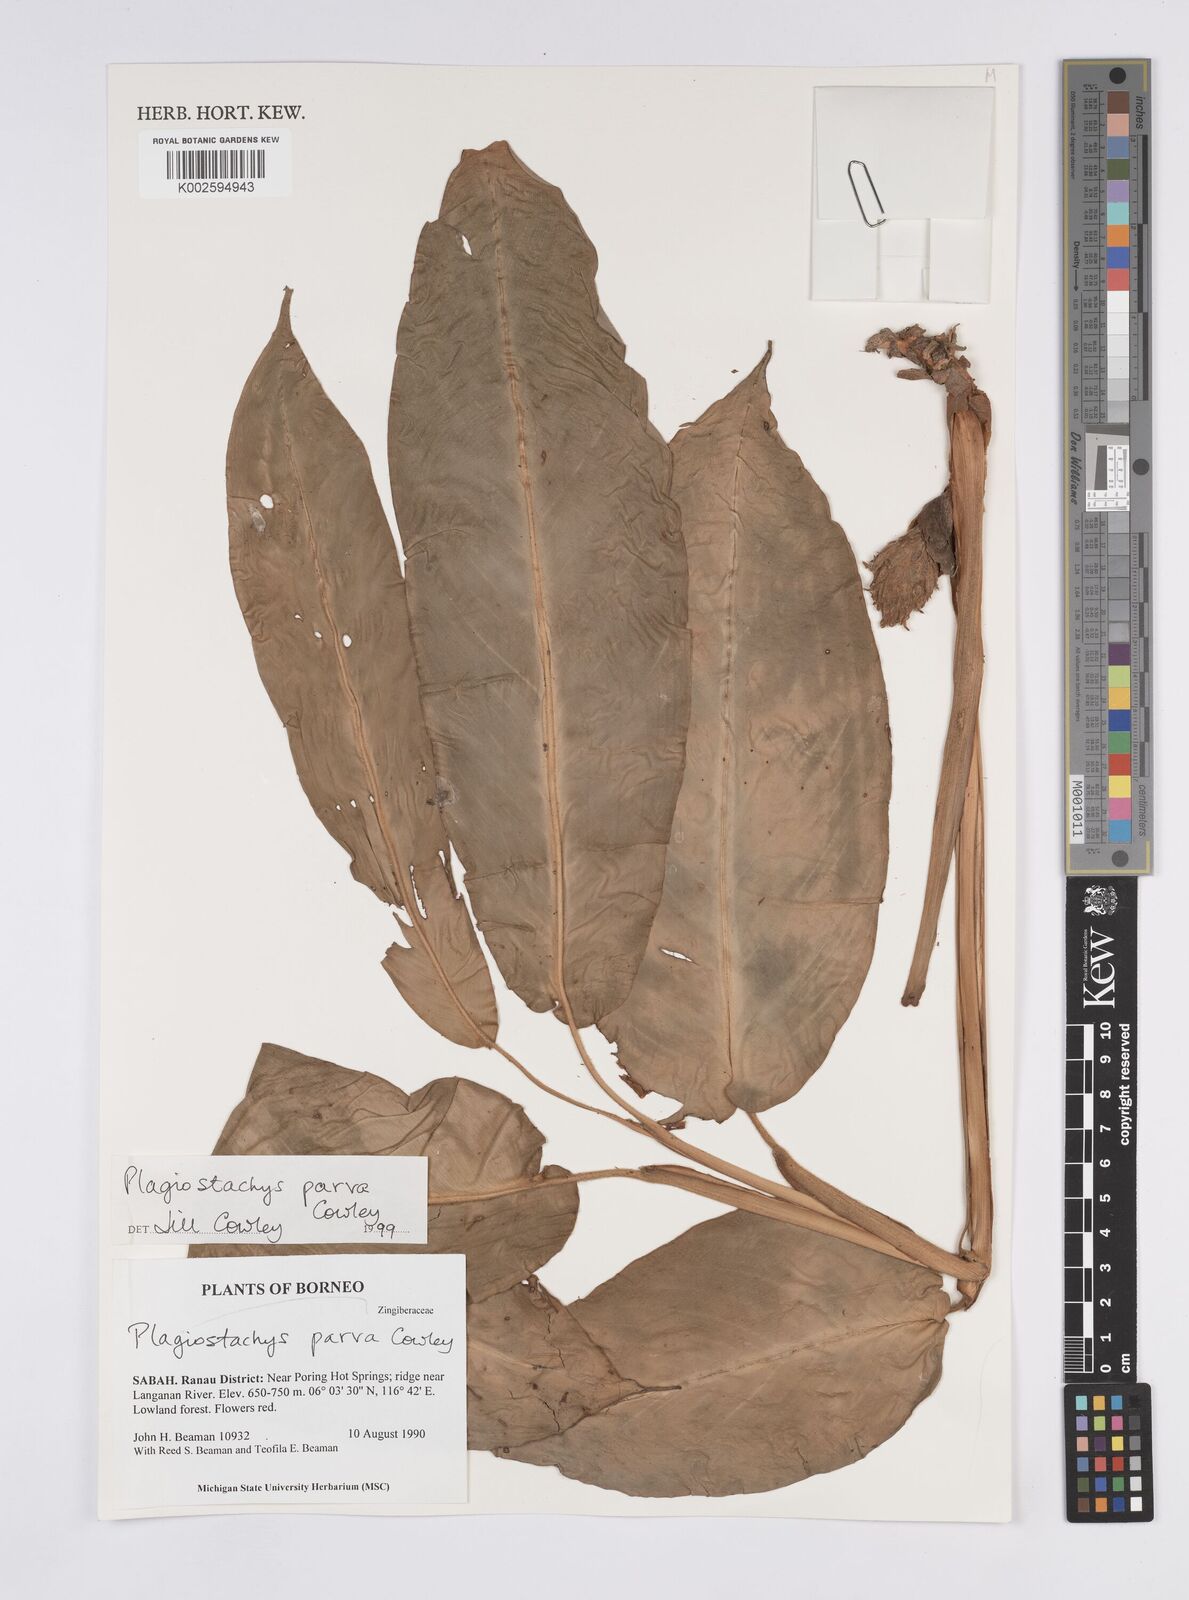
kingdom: Plantae
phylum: Tracheophyta
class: Liliopsida
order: Zingiberales
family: Zingiberaceae
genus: Plagiostachys
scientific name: Plagiostachys parva
